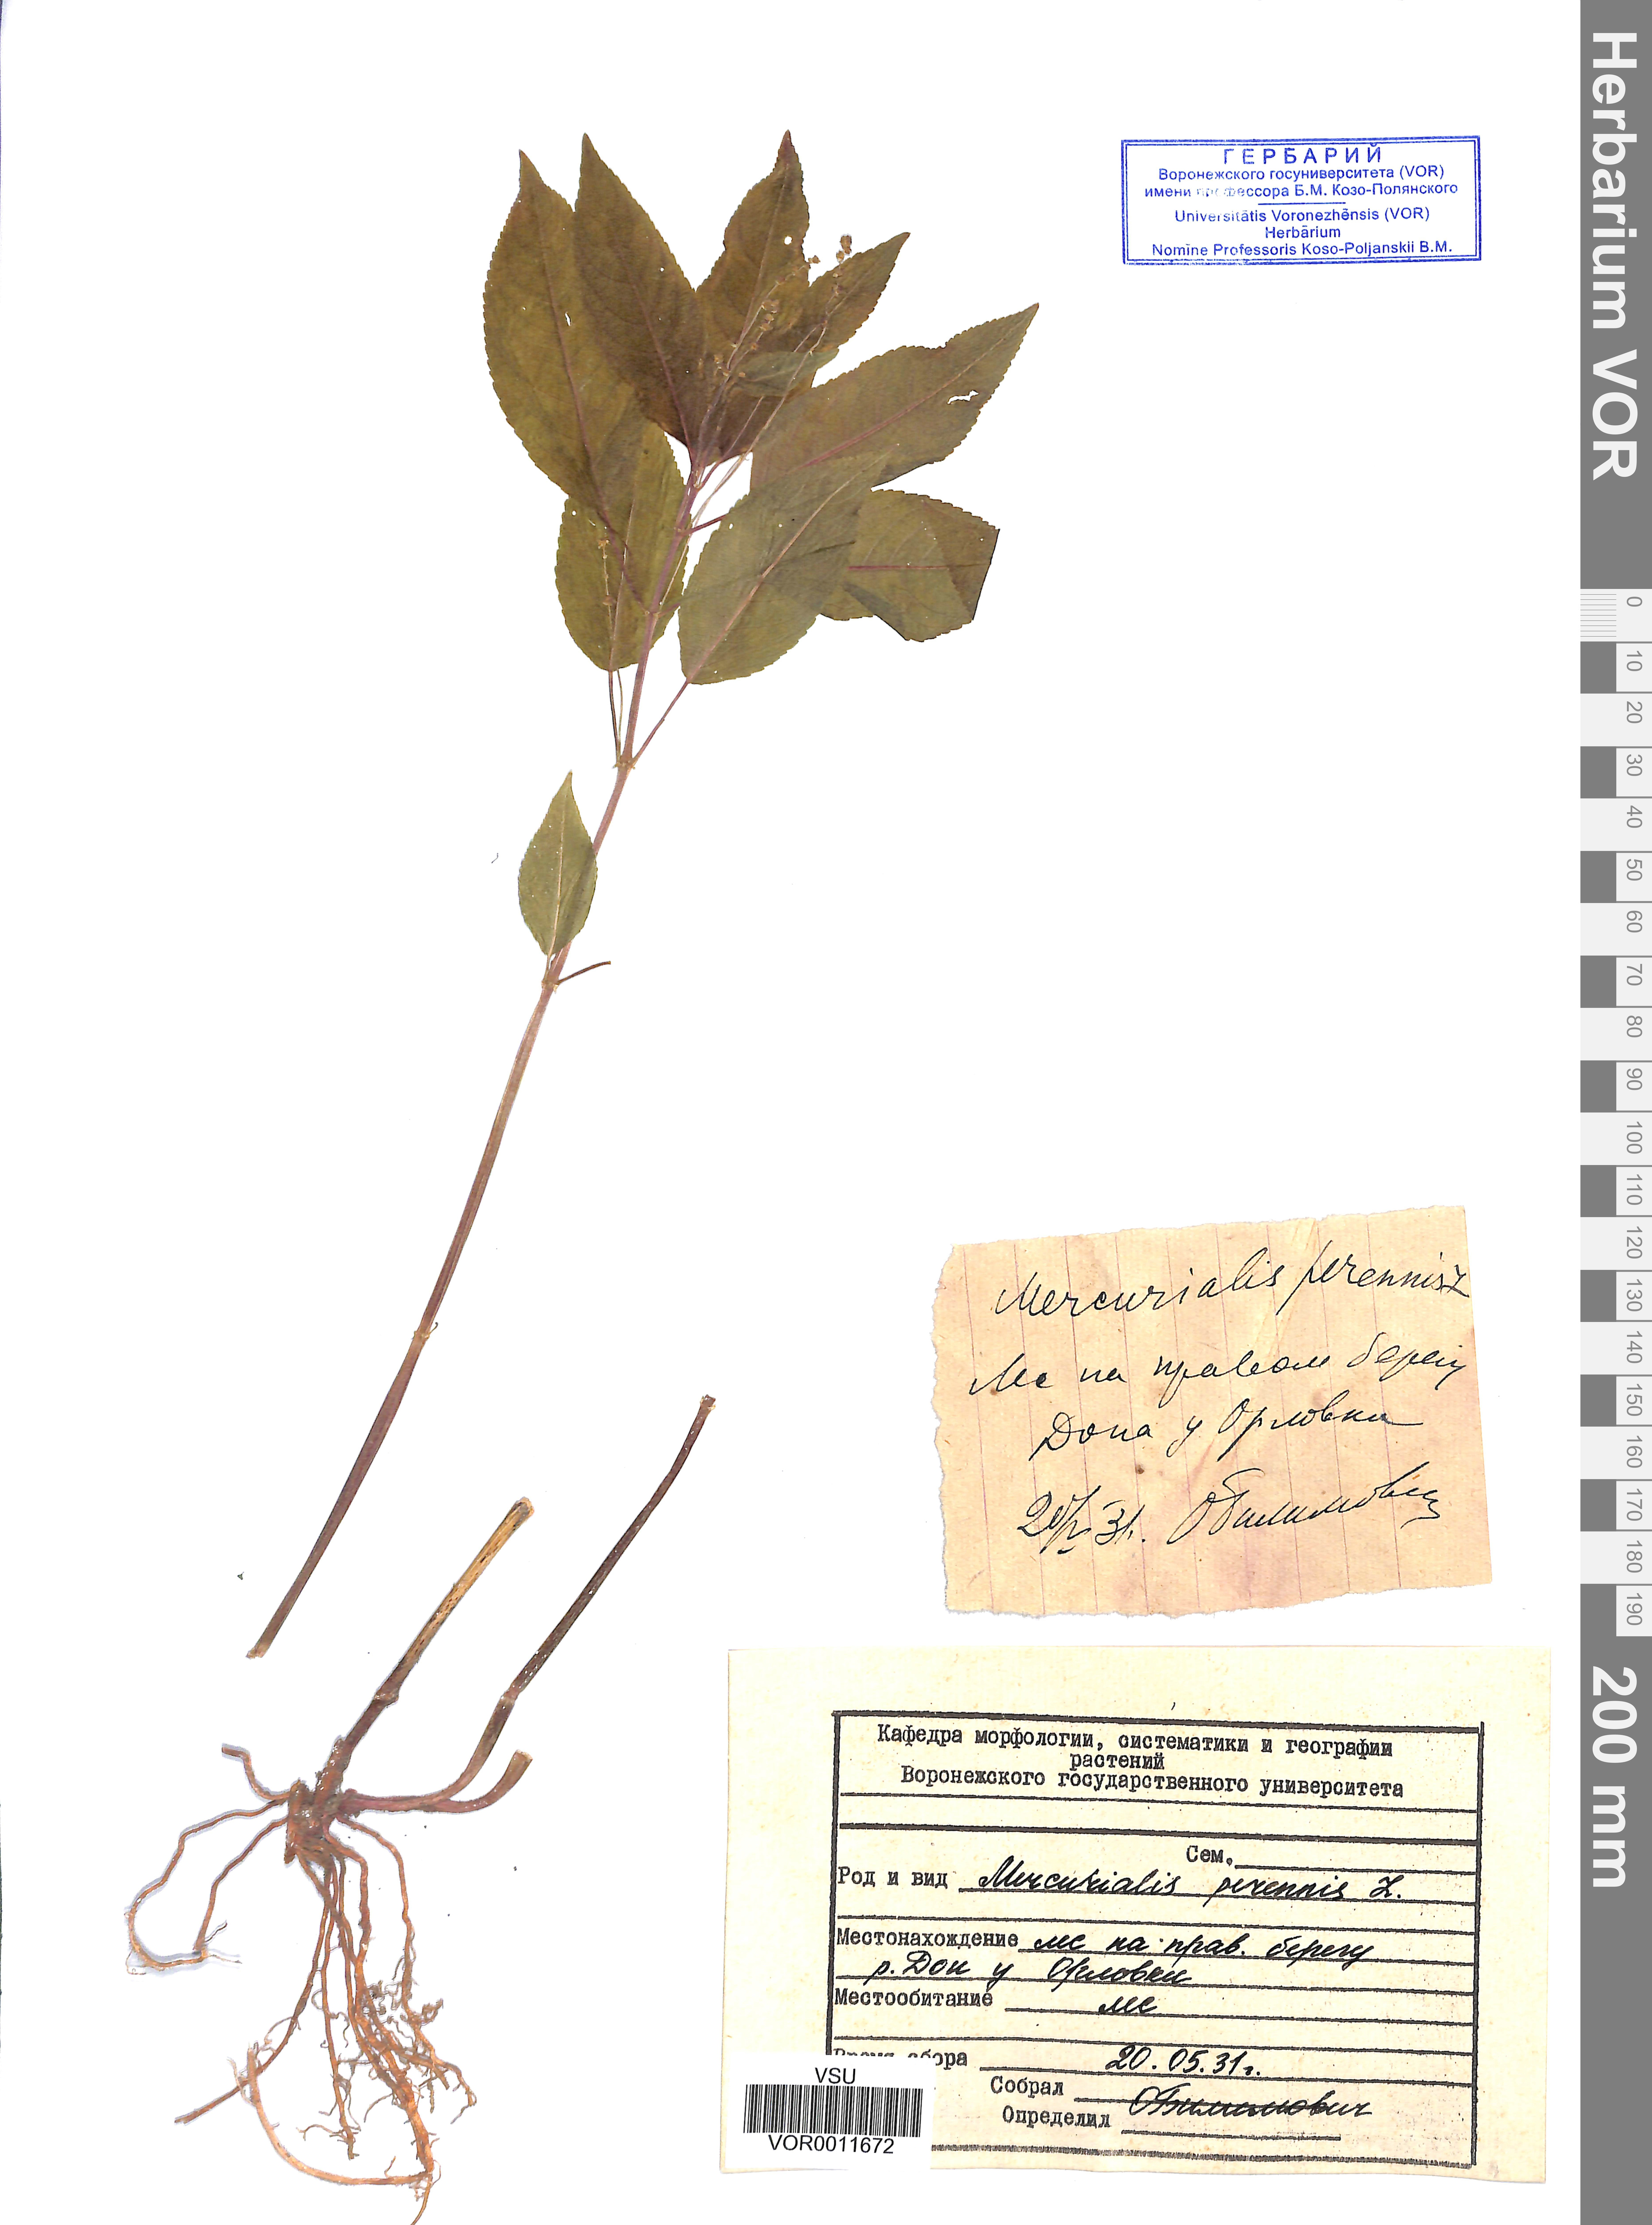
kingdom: Plantae
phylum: Tracheophyta
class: Magnoliopsida
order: Malpighiales
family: Euphorbiaceae
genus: Mercurialis
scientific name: Mercurialis perennis
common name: Dog mercury
